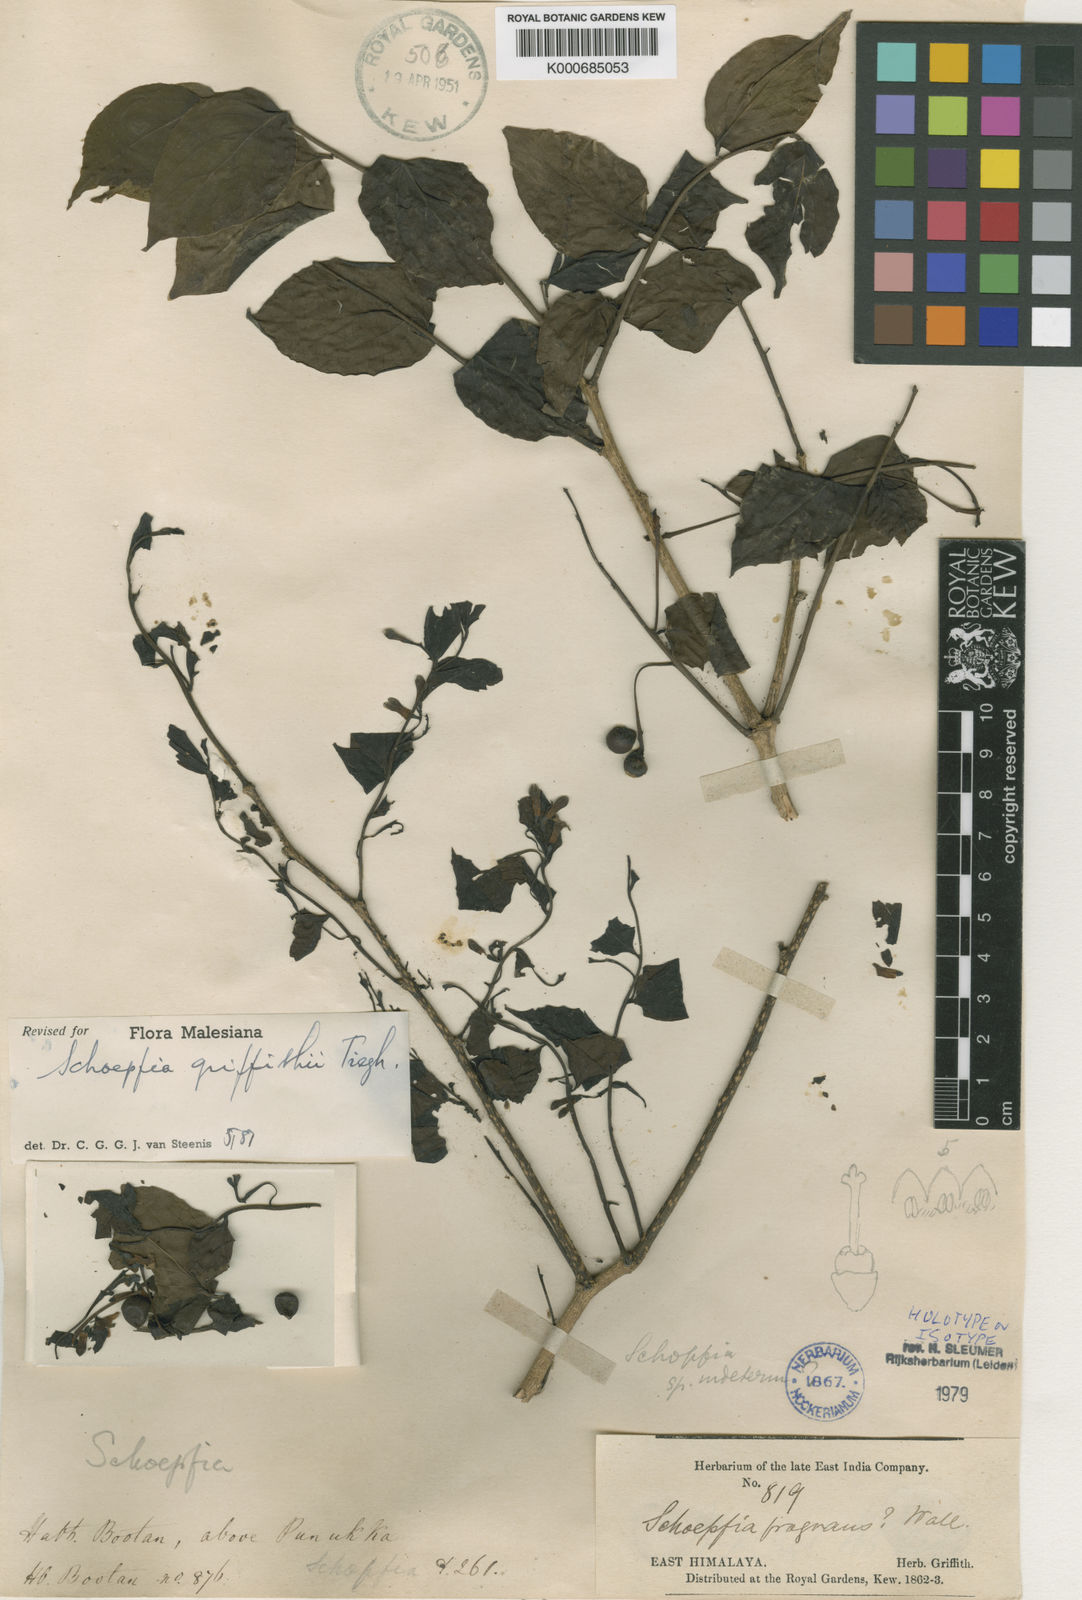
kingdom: Plantae
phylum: Tracheophyta
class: Magnoliopsida
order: Santalales
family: Schoepfiaceae
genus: Schoepfia
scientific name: Schoepfia
